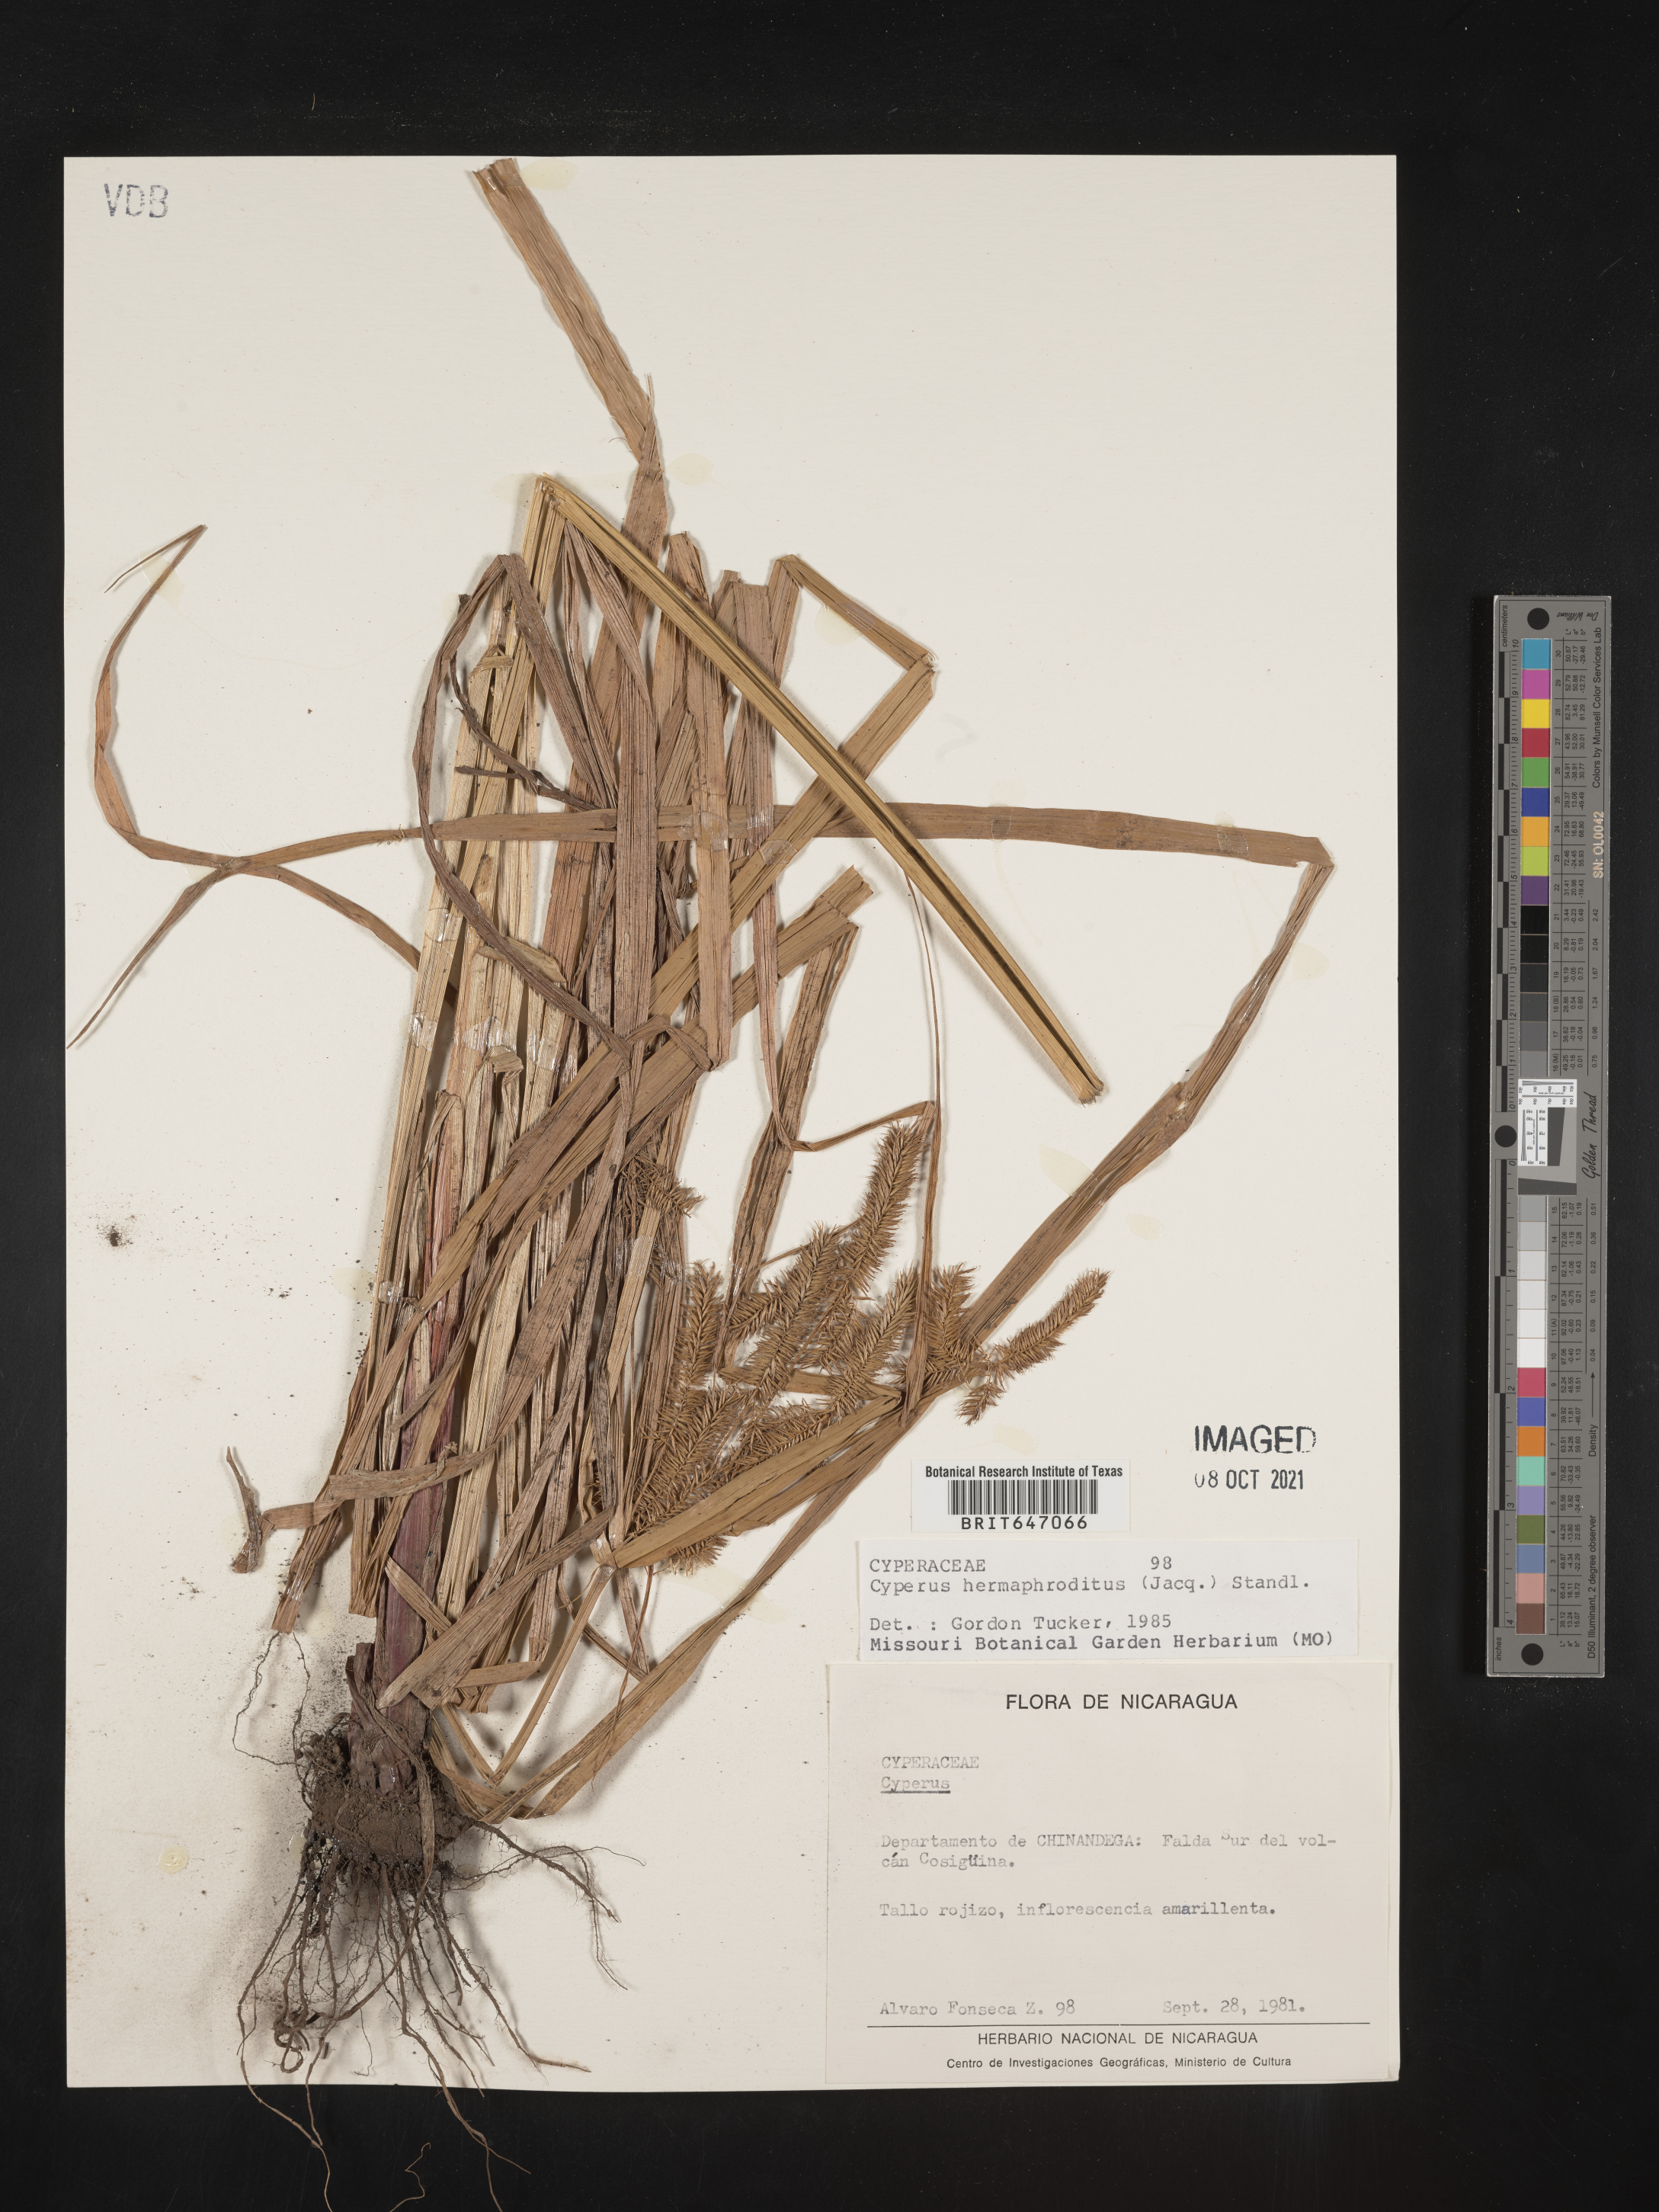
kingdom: Plantae
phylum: Tracheophyta
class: Liliopsida
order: Poales
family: Cyperaceae
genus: Cyperus
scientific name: Cyperus hermaphroditus
